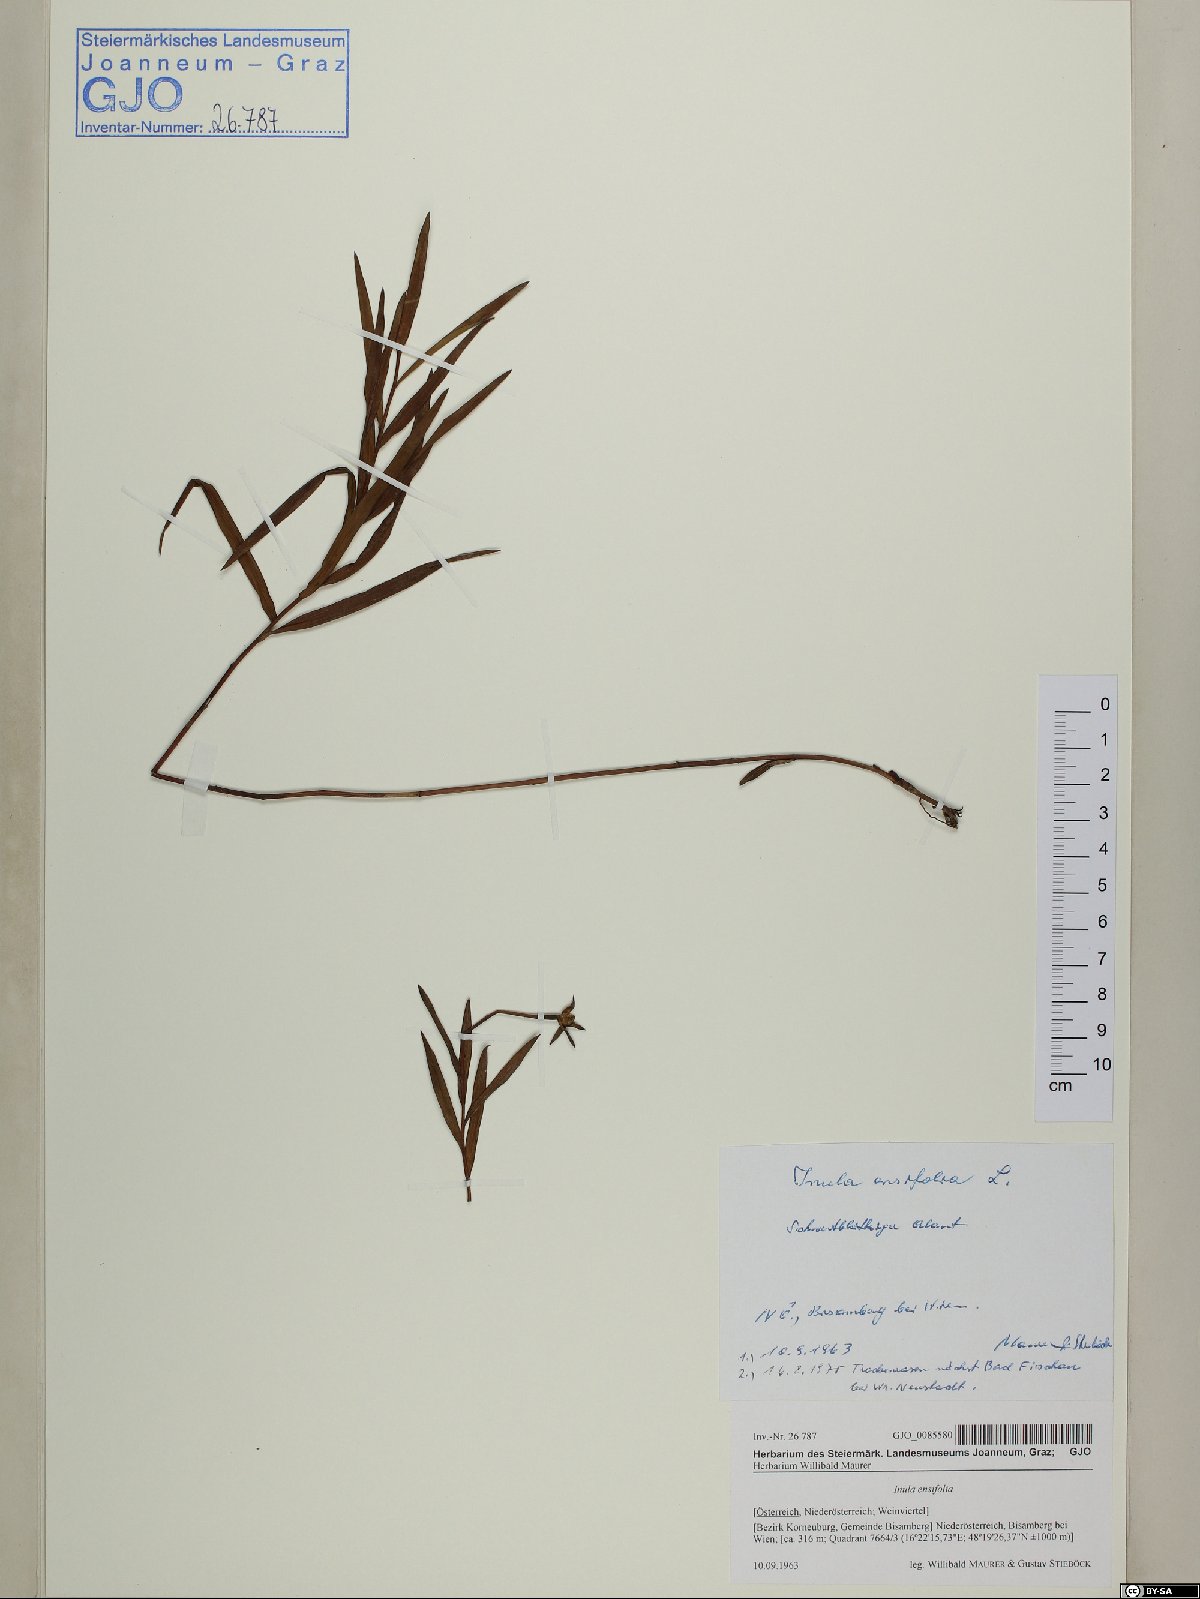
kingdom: Plantae
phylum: Tracheophyta
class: Magnoliopsida
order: Asterales
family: Asteraceae
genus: Pentanema
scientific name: Pentanema ensifolium
